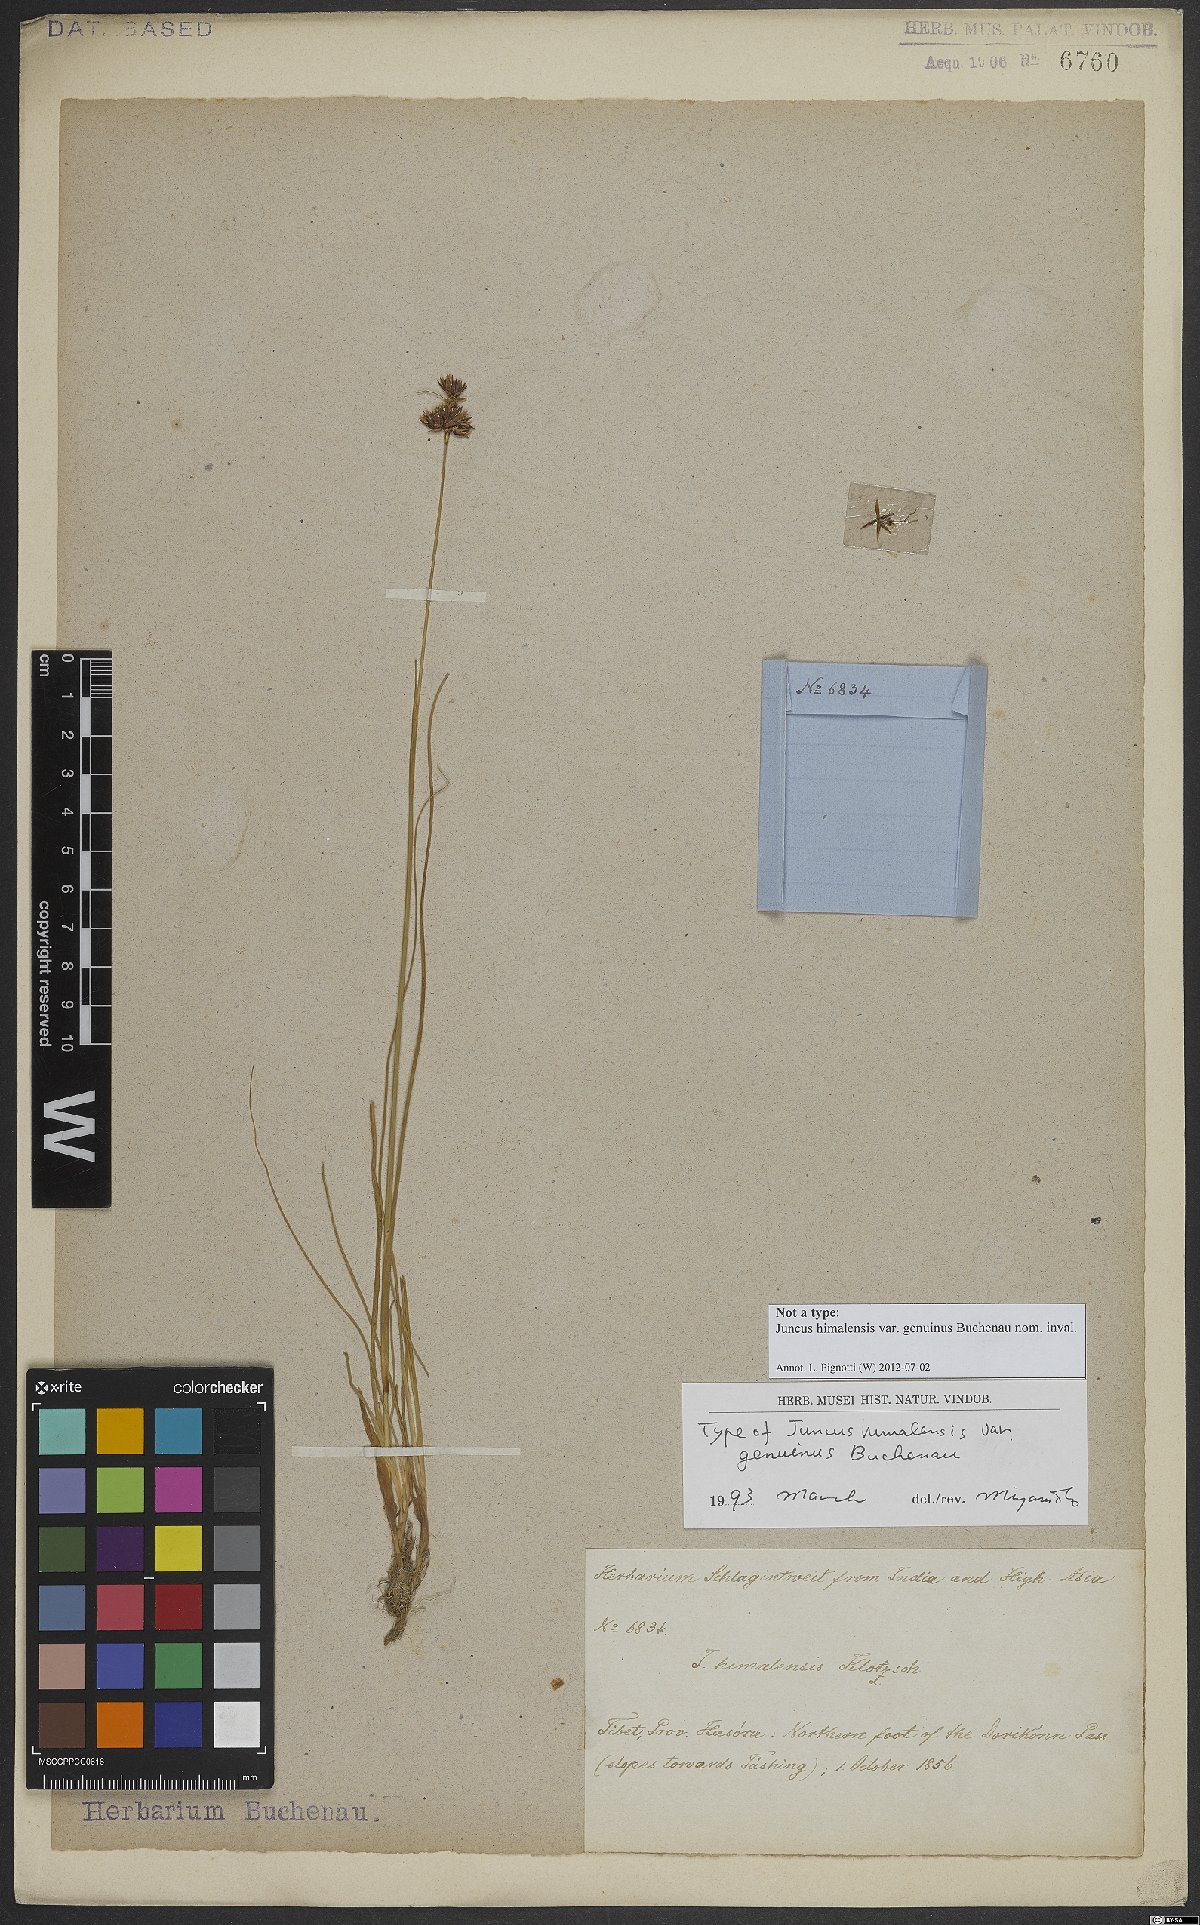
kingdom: Plantae
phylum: Tracheophyta
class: Liliopsida
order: Poales
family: Juncaceae
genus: Juncus
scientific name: Juncus himalensis
